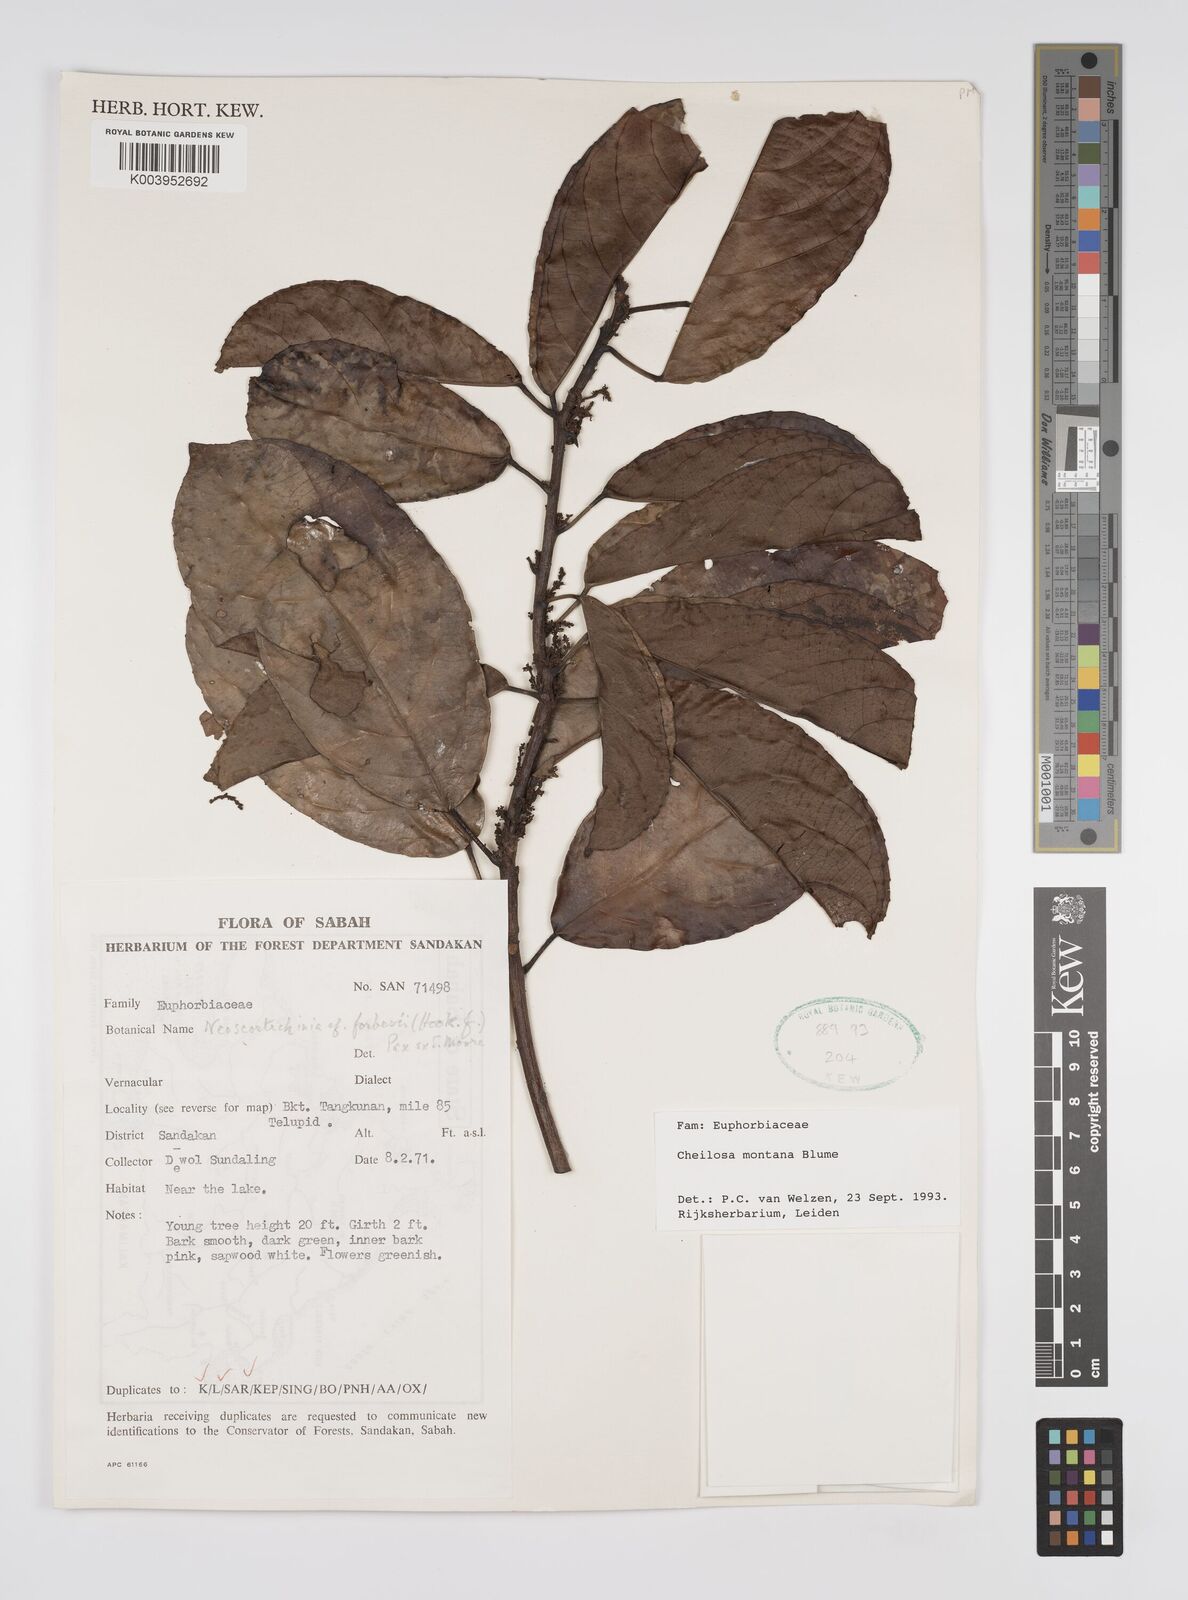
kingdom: Plantae
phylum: Tracheophyta
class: Magnoliopsida
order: Malpighiales
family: Euphorbiaceae
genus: Cheilosa
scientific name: Cheilosa montana
